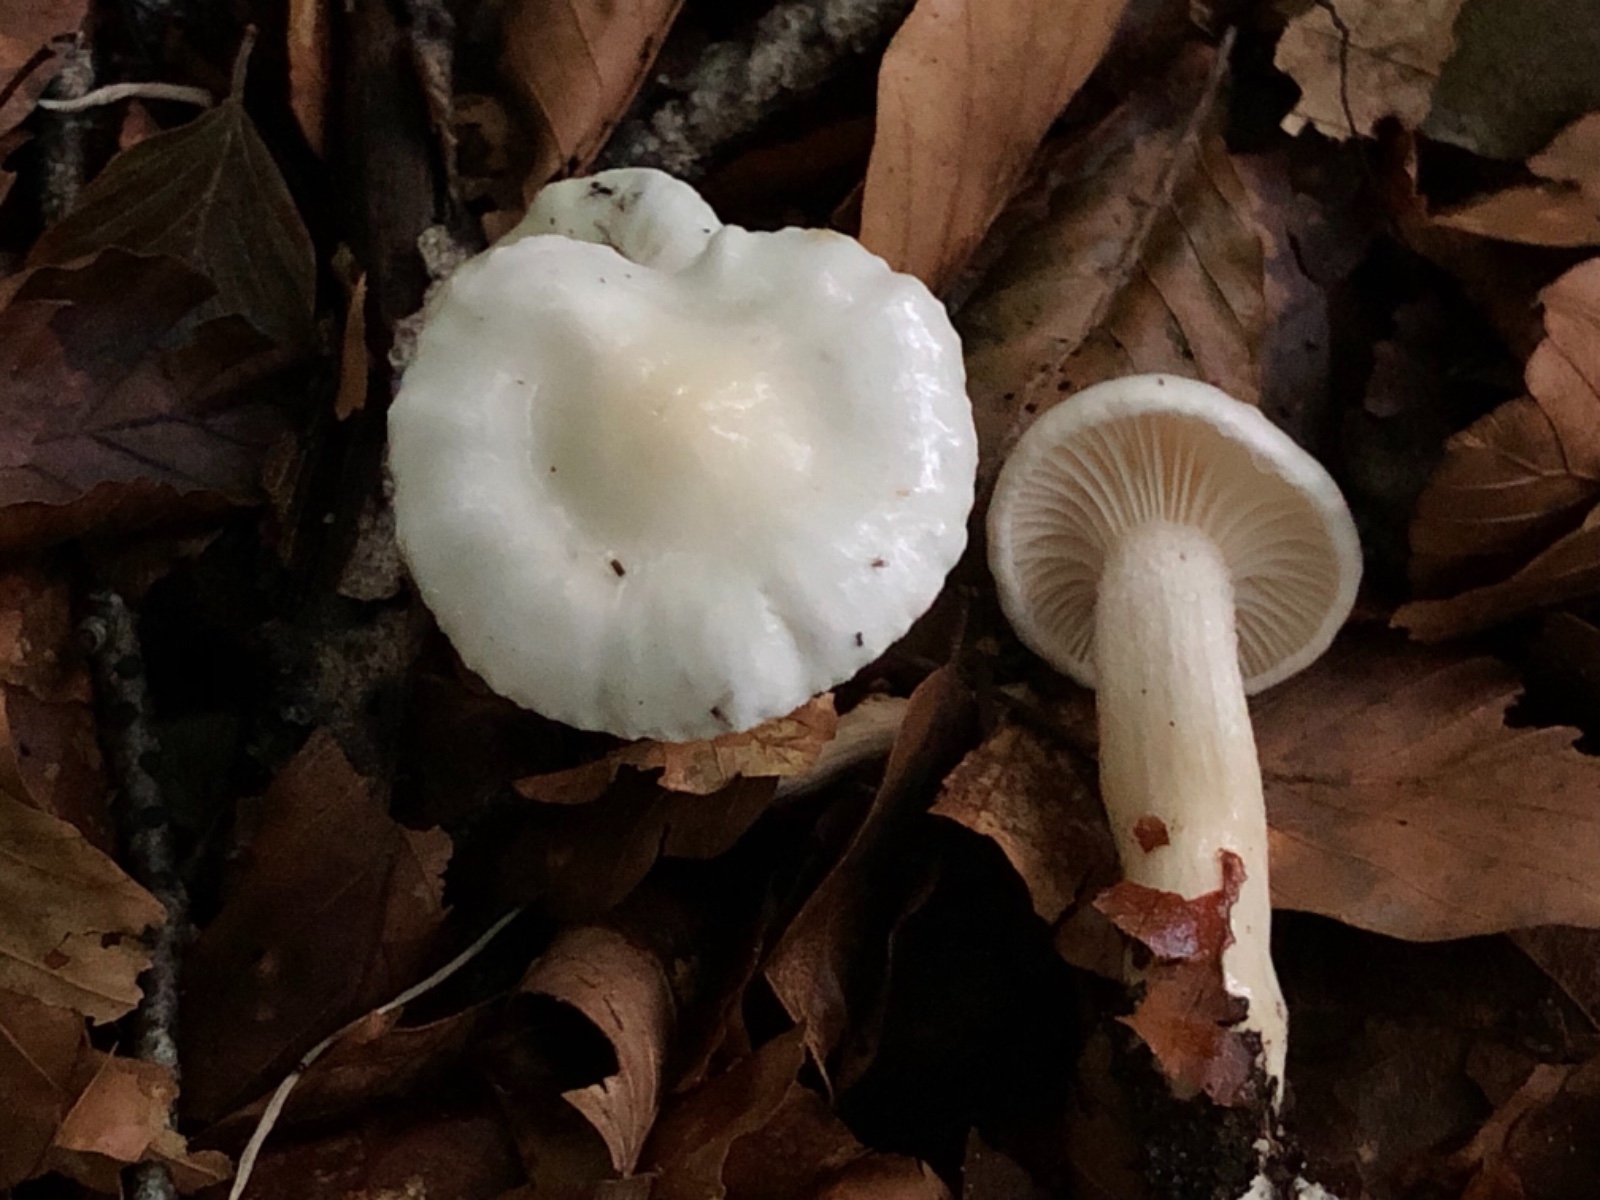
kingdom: Fungi
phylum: Basidiomycota
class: Agaricomycetes
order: Agaricales
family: Hygrophoraceae
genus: Hygrophorus
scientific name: Hygrophorus eburneus
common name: elfenbens-sneglehat
